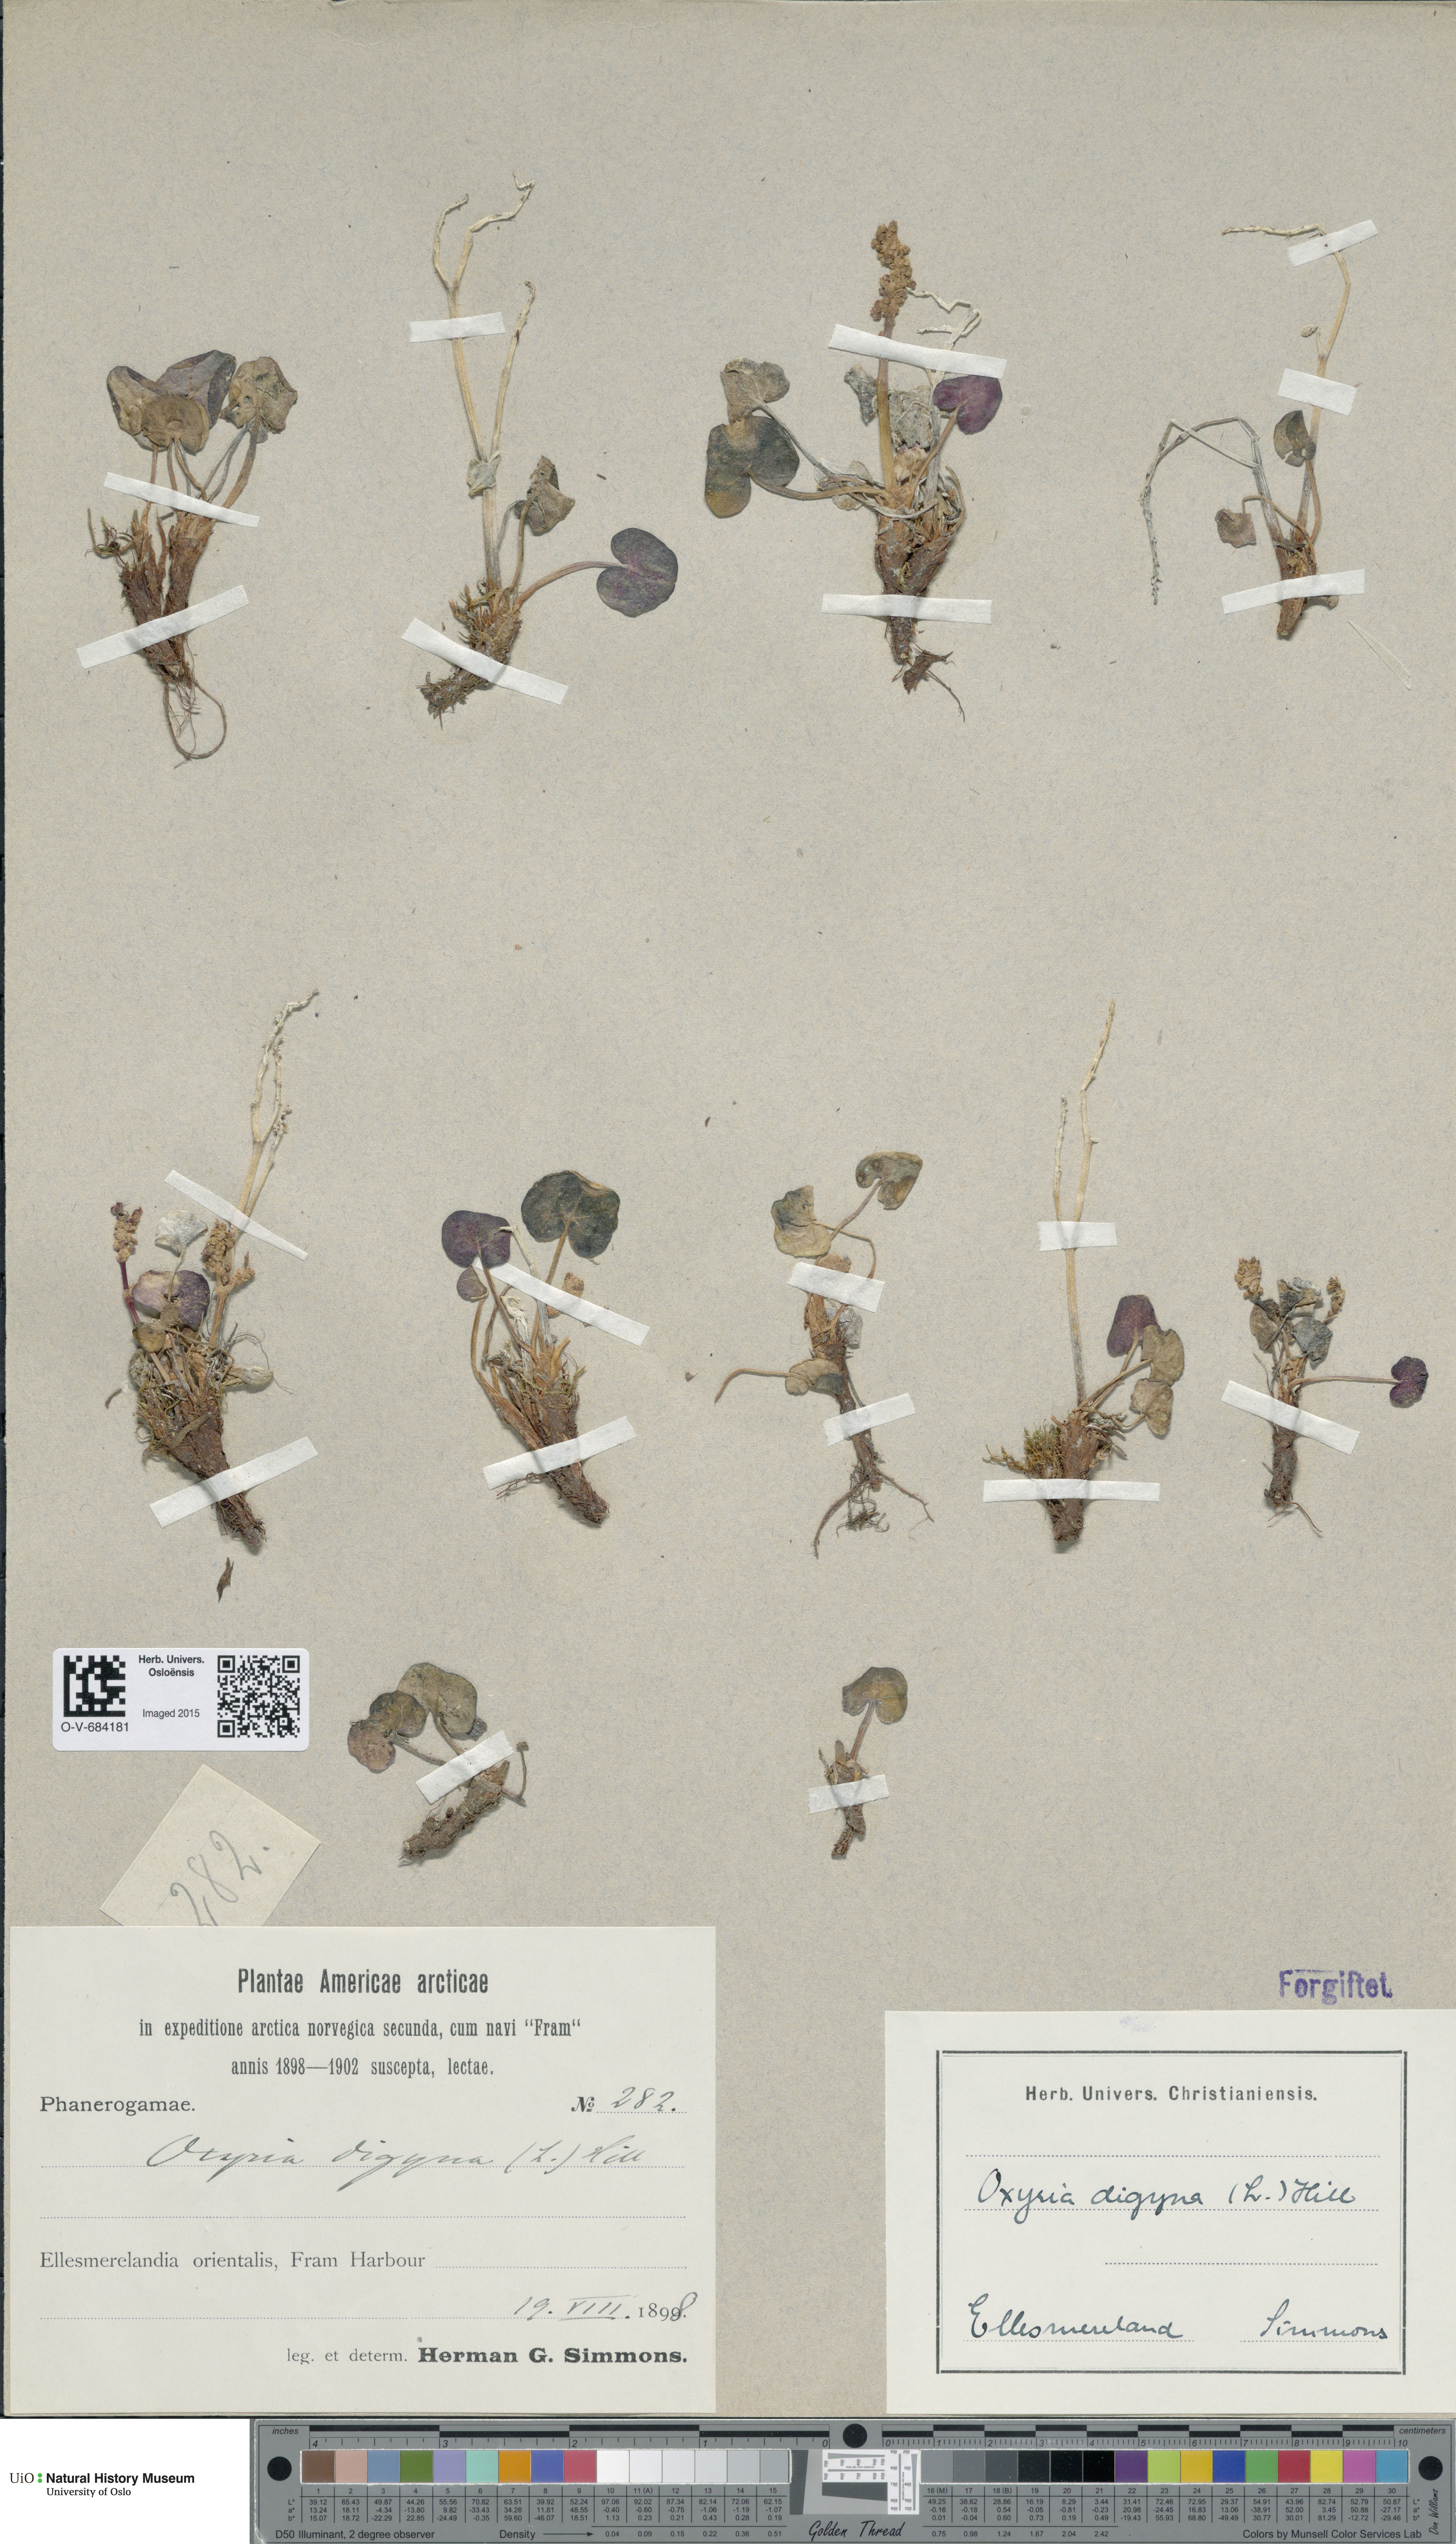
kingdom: Plantae
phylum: Tracheophyta
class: Magnoliopsida
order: Caryophyllales
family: Polygonaceae
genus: Oxyria
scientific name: Oxyria digyna
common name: Alpine mountain-sorrel
